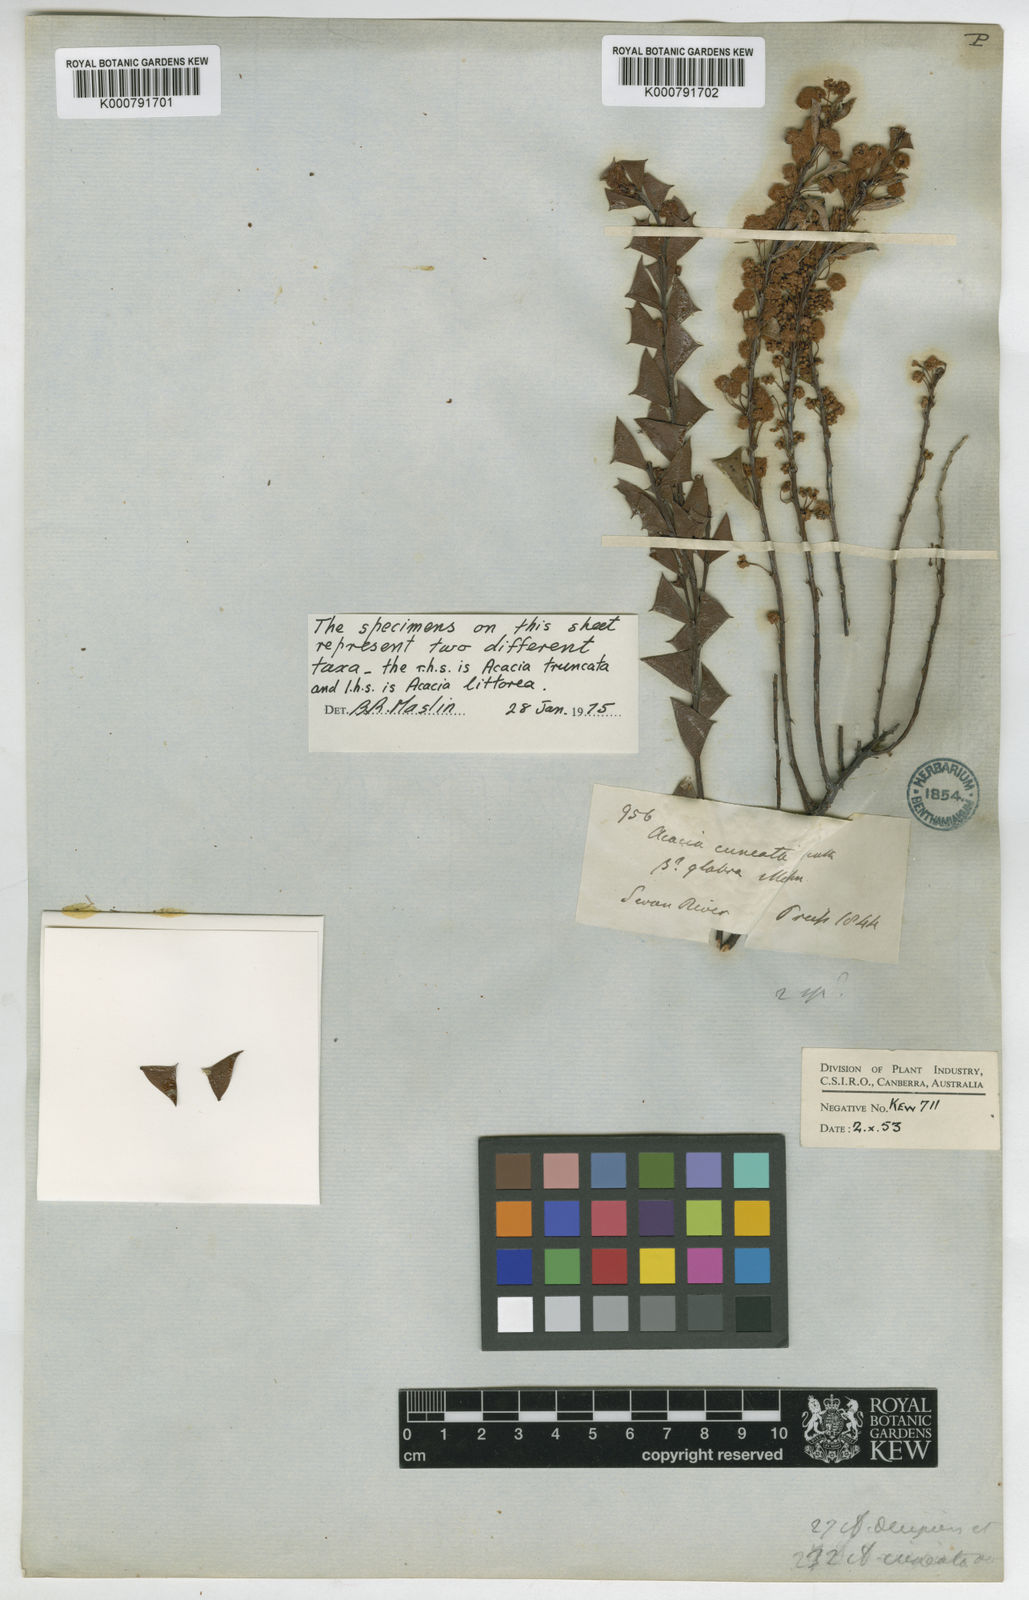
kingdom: Plantae
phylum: Tracheophyta
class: Magnoliopsida
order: Fabales
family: Fabaceae
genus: Acacia
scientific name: Acacia truncata
